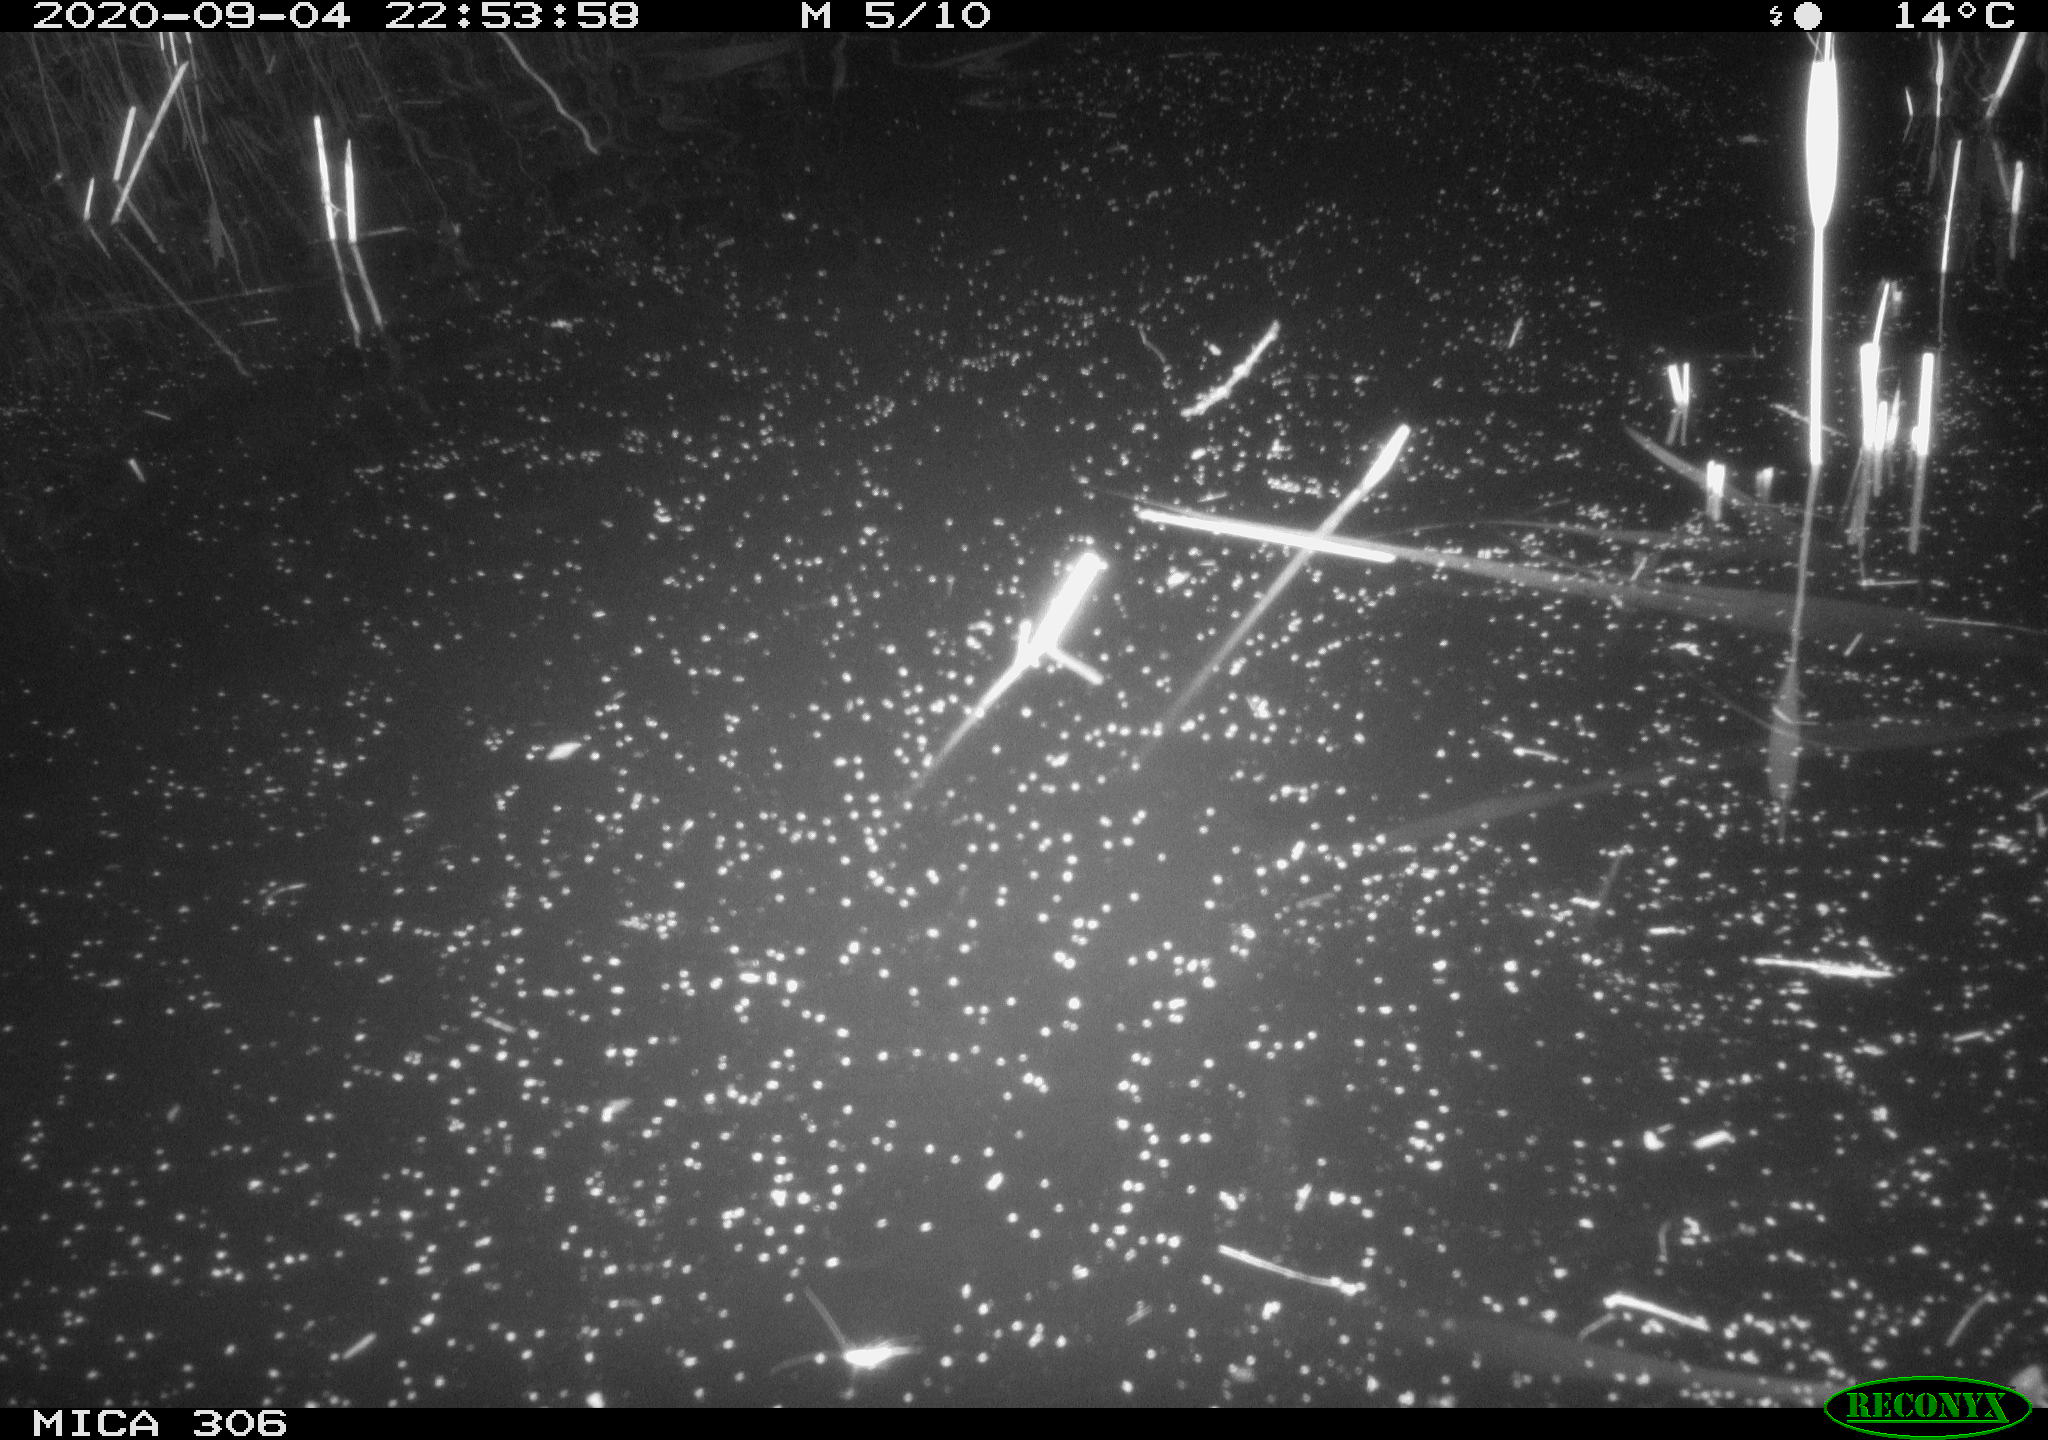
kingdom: Animalia
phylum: Chordata
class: Mammalia
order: Rodentia
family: Cricetidae
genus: Ondatra
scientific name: Ondatra zibethicus
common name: Muskrat
